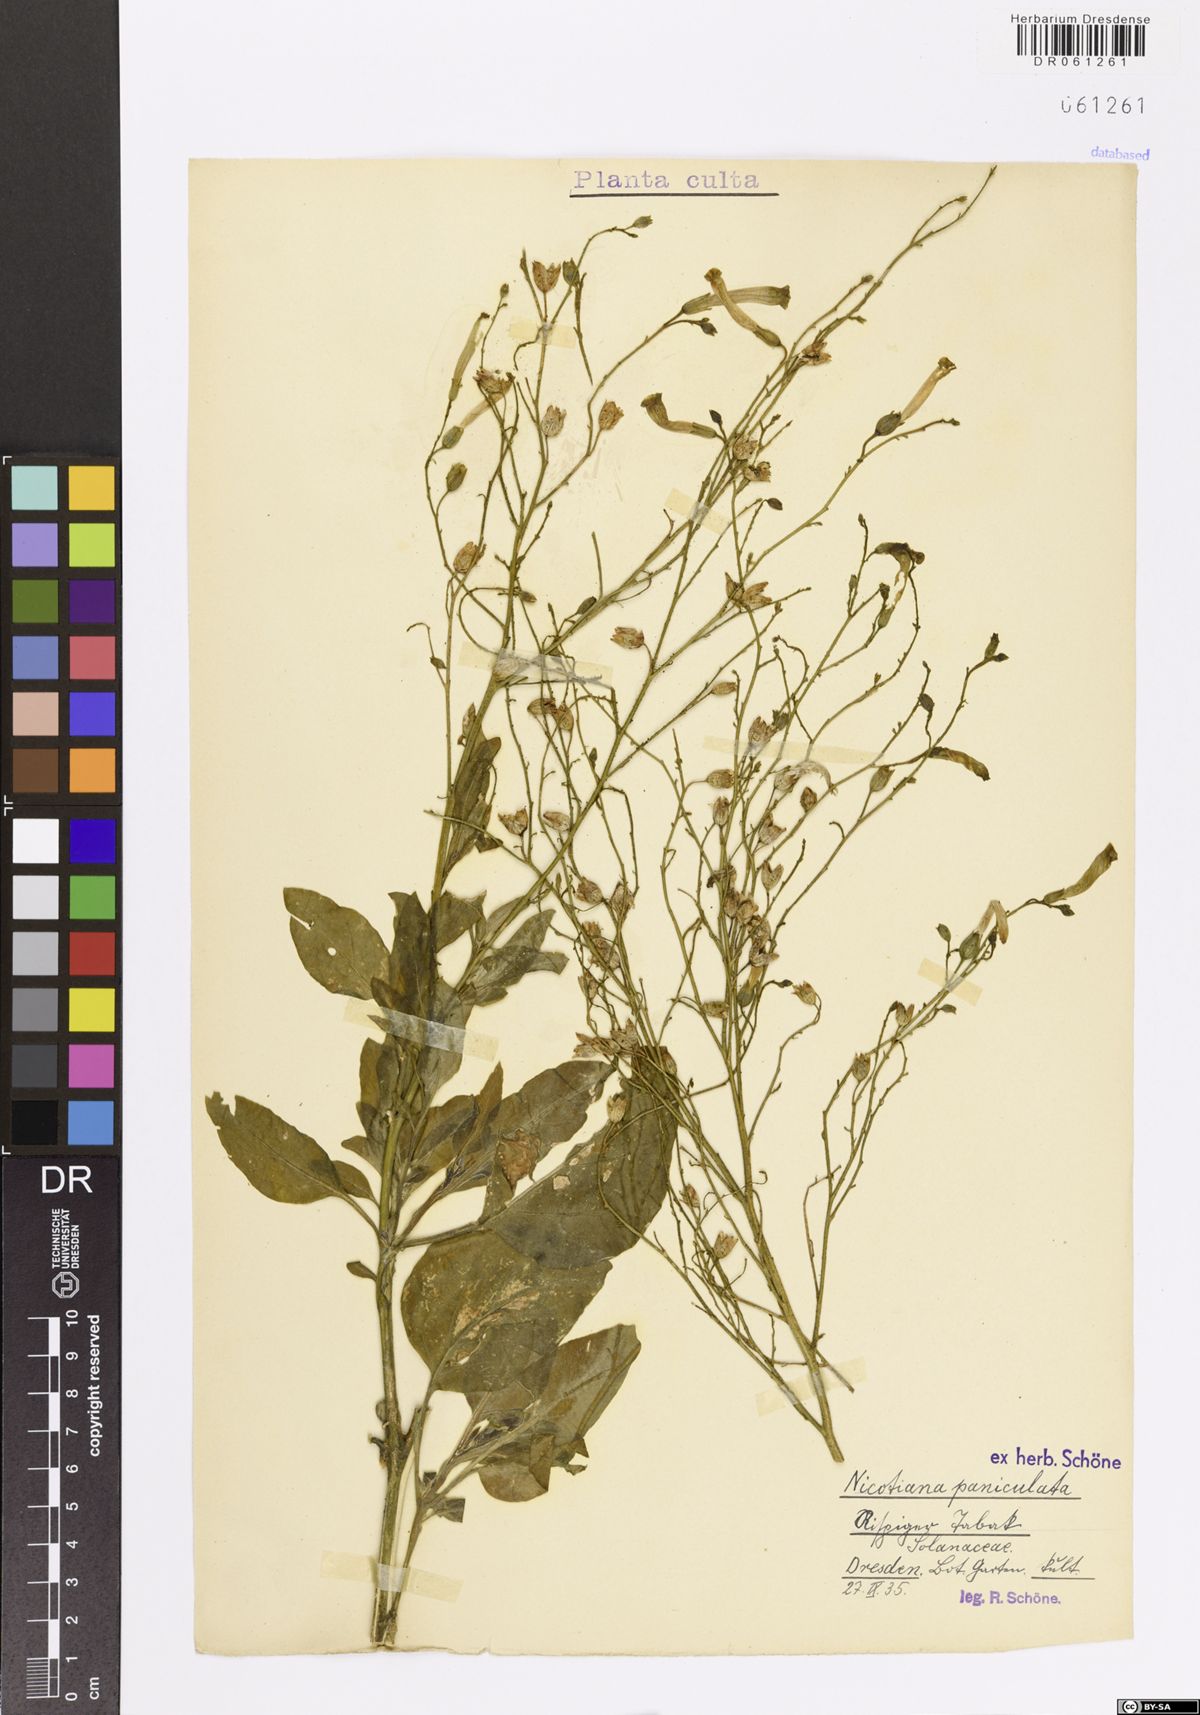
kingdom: Plantae
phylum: Tracheophyta
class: Magnoliopsida
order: Solanales
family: Solanaceae
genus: Nicotiana
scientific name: Nicotiana paniculata
